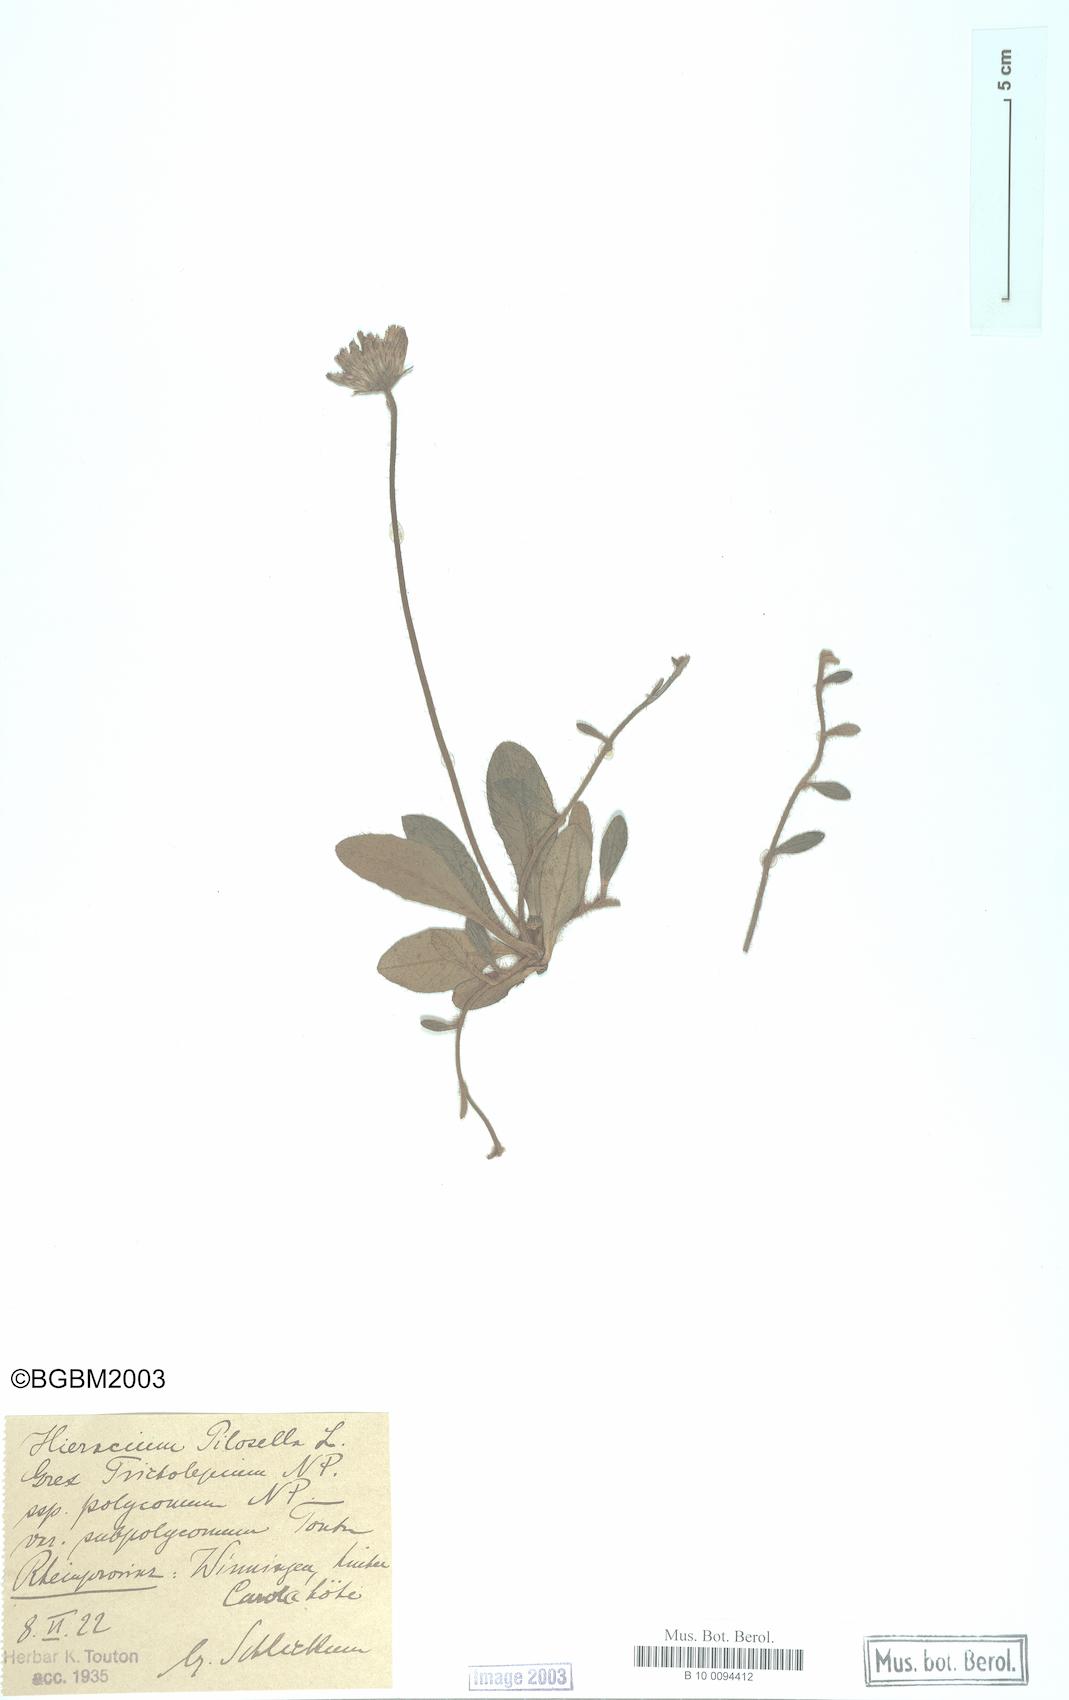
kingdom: Plantae
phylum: Tracheophyta
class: Magnoliopsida
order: Asterales
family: Asteraceae
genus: Pilosella
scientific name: Pilosella officinarum
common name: Mouse-ear hawkweed
